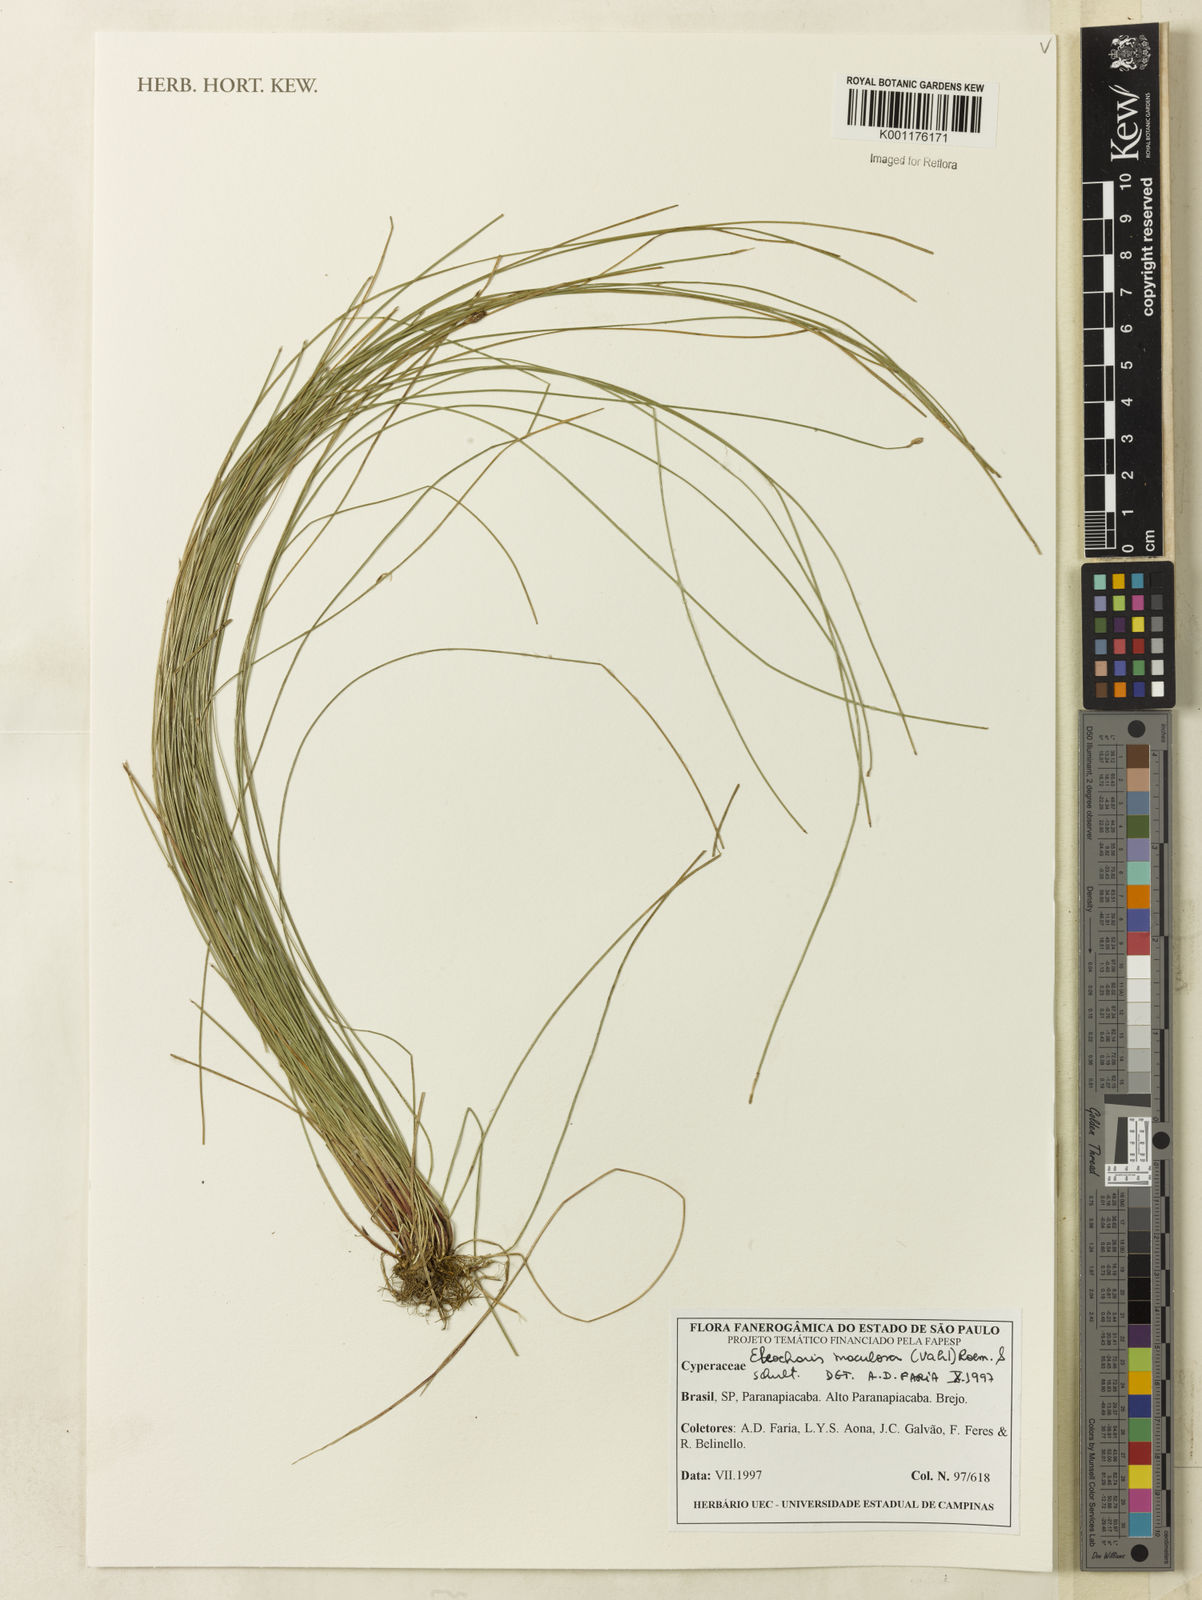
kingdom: Plantae
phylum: Tracheophyta
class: Liliopsida
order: Poales
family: Cyperaceae
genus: Eleocharis
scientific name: Eleocharis maculosa
